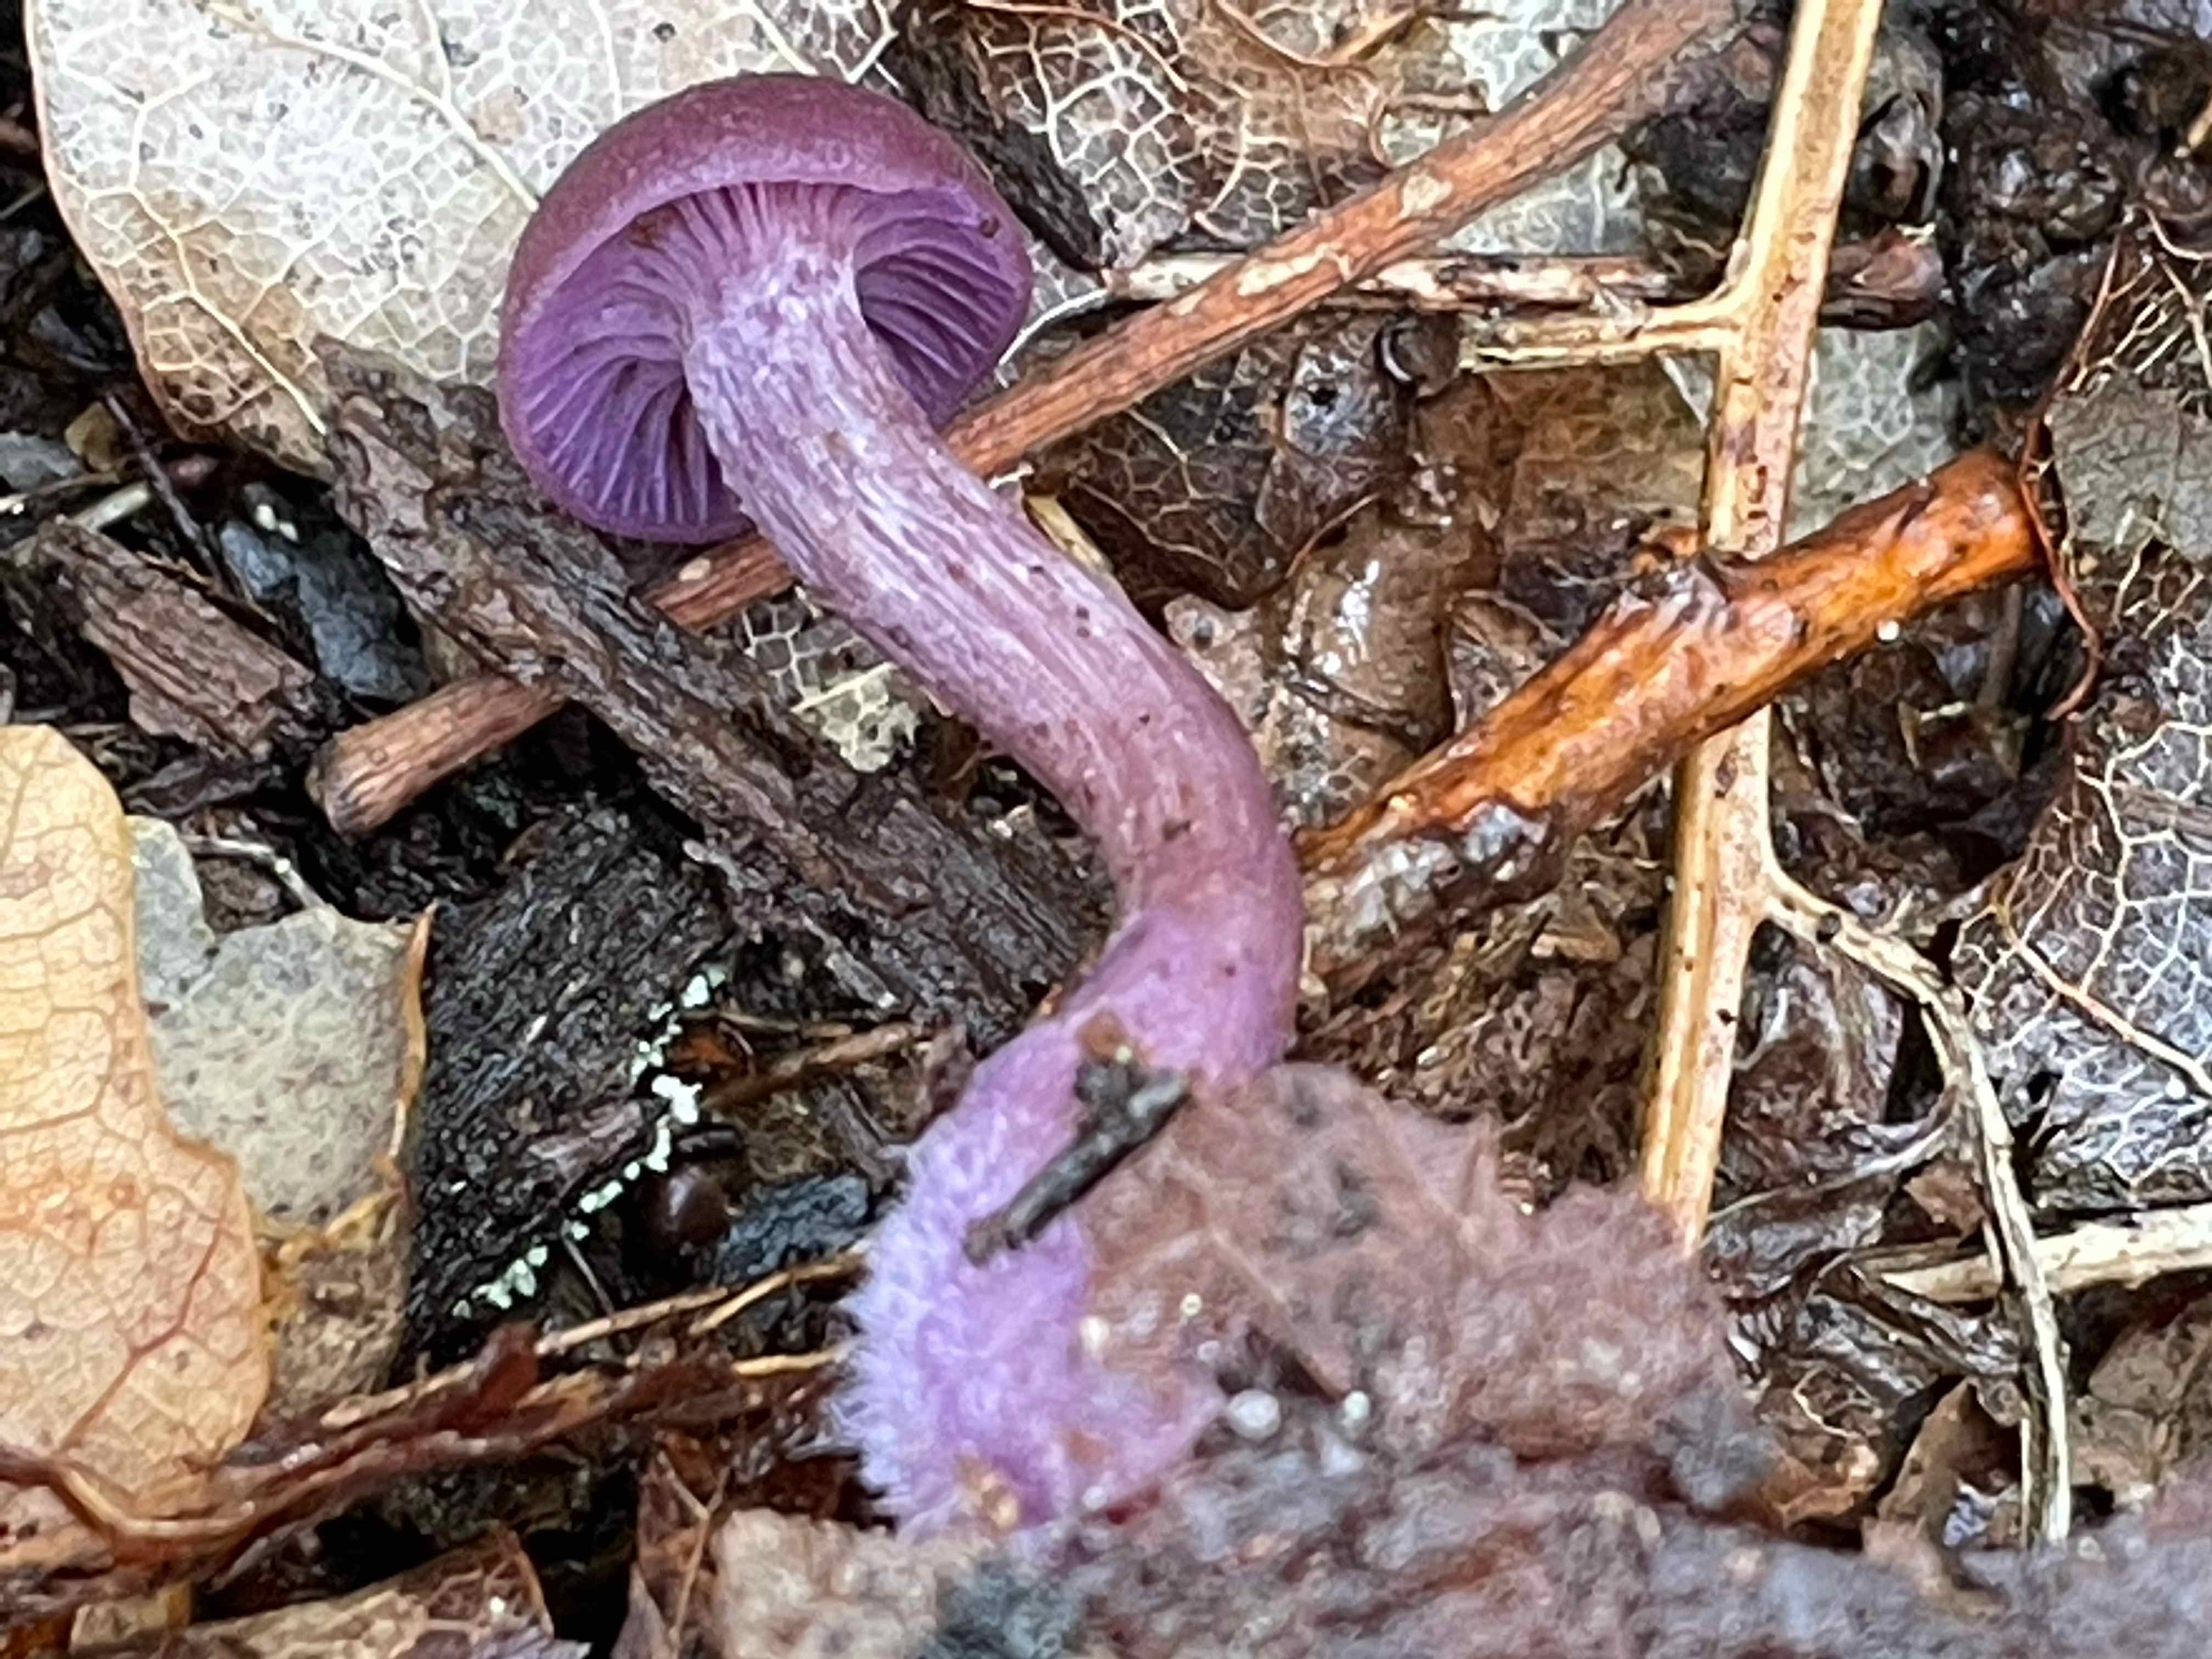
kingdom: Fungi
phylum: Basidiomycota
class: Agaricomycetes
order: Agaricales
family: Hydnangiaceae
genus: Laccaria
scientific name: Laccaria amethystina
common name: violet ametysthat
